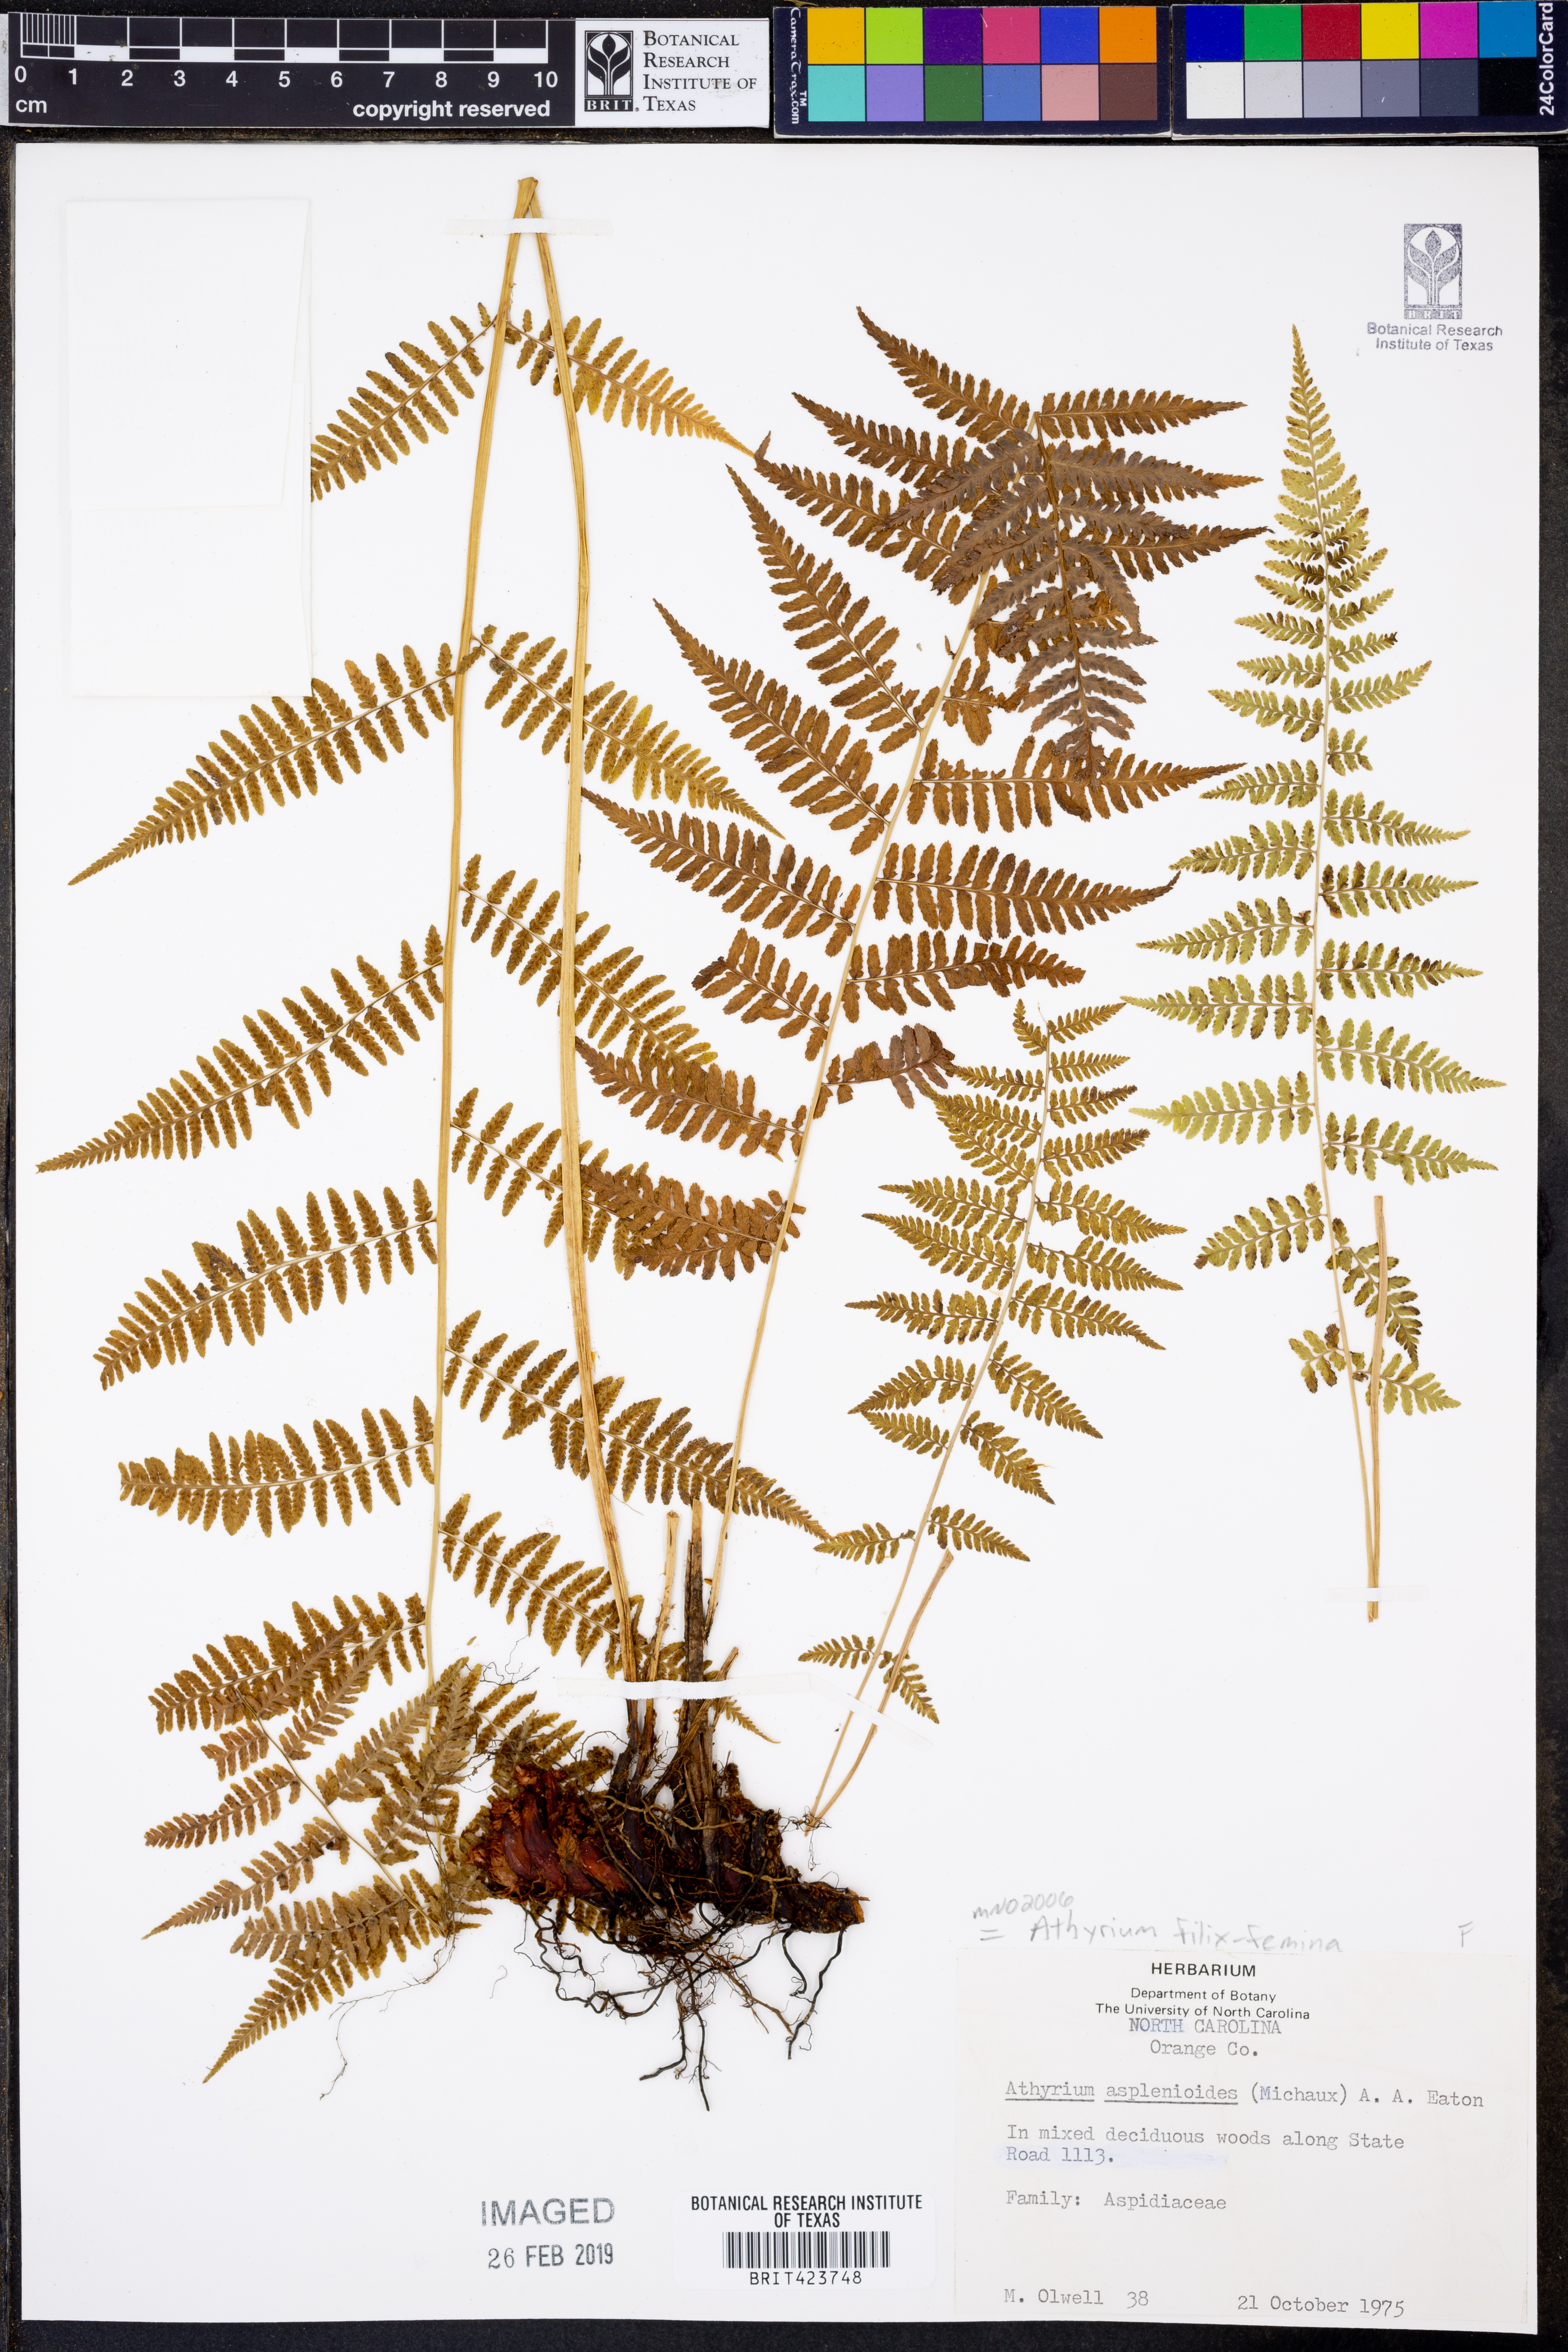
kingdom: Plantae
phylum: Tracheophyta
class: Polypodiopsida
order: Polypodiales
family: Athyriaceae
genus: Athyrium
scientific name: Athyrium filix-femina
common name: Lady fern
